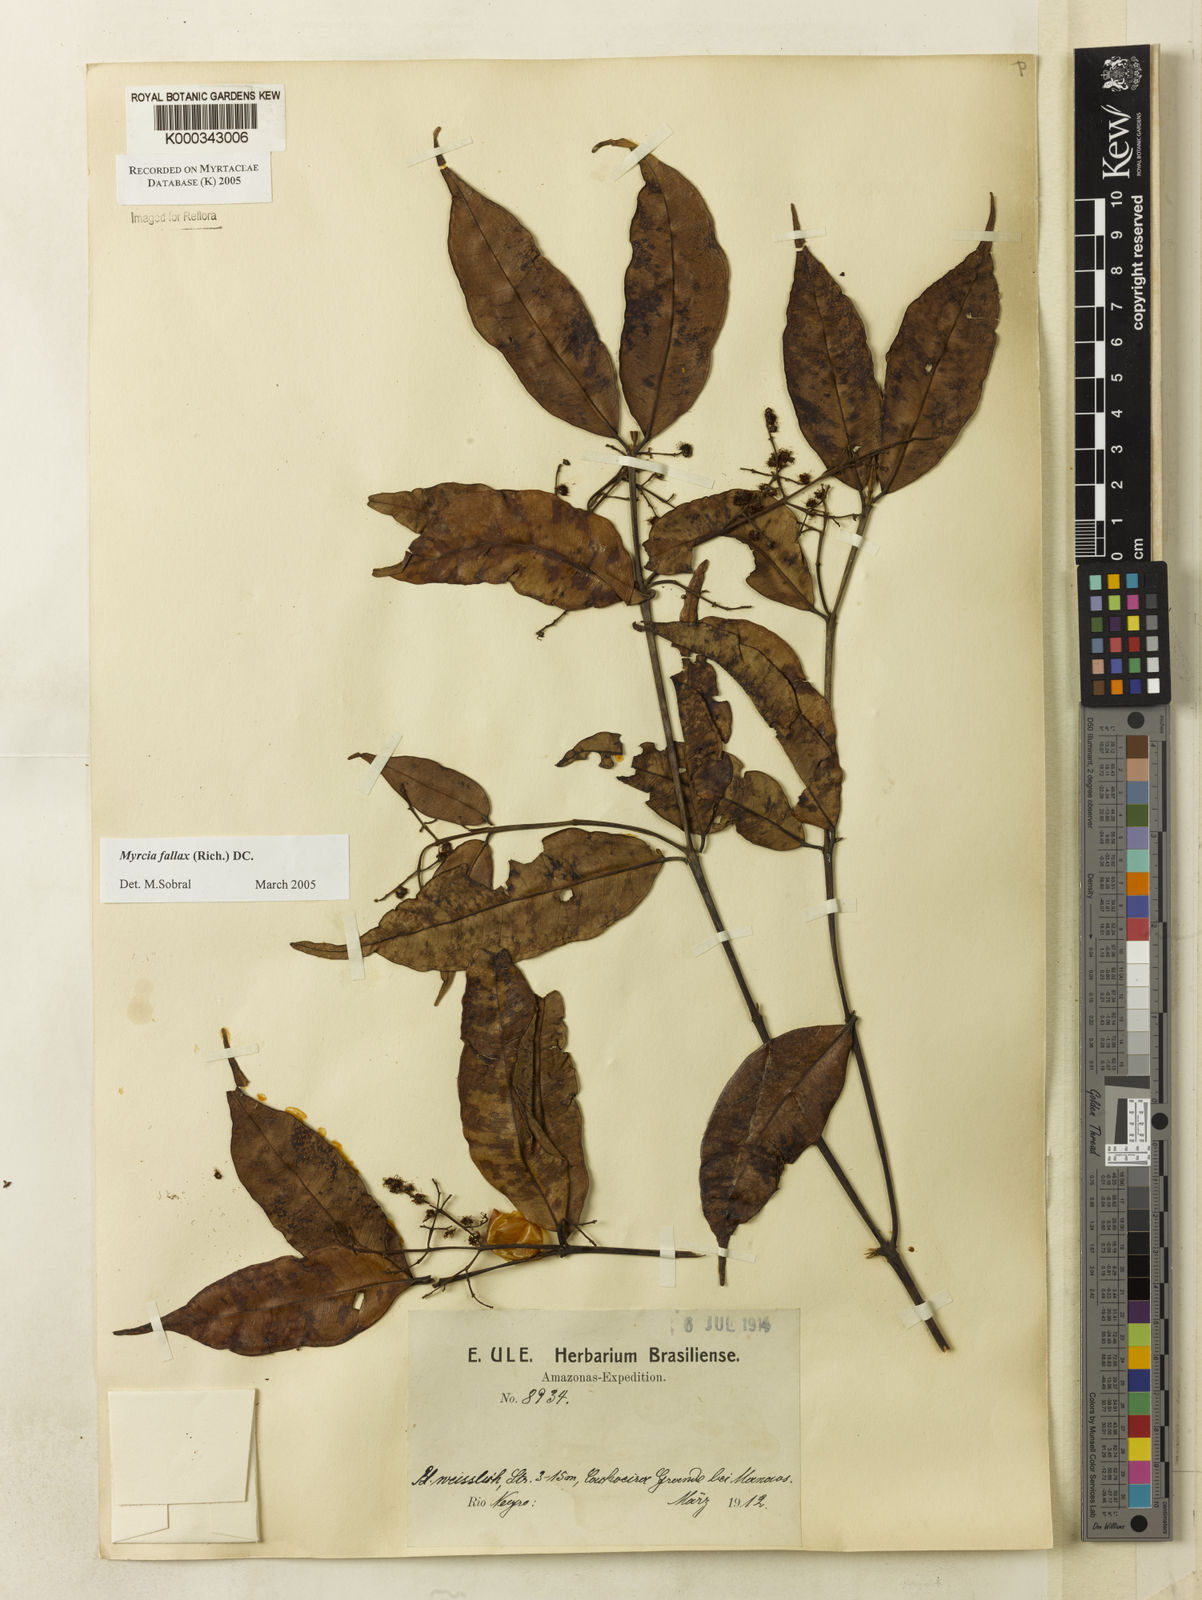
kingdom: Plantae
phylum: Tracheophyta
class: Magnoliopsida
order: Myrtales
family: Myrtaceae
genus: Myrcia
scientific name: Myrcia splendens
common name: Surinam cherry
